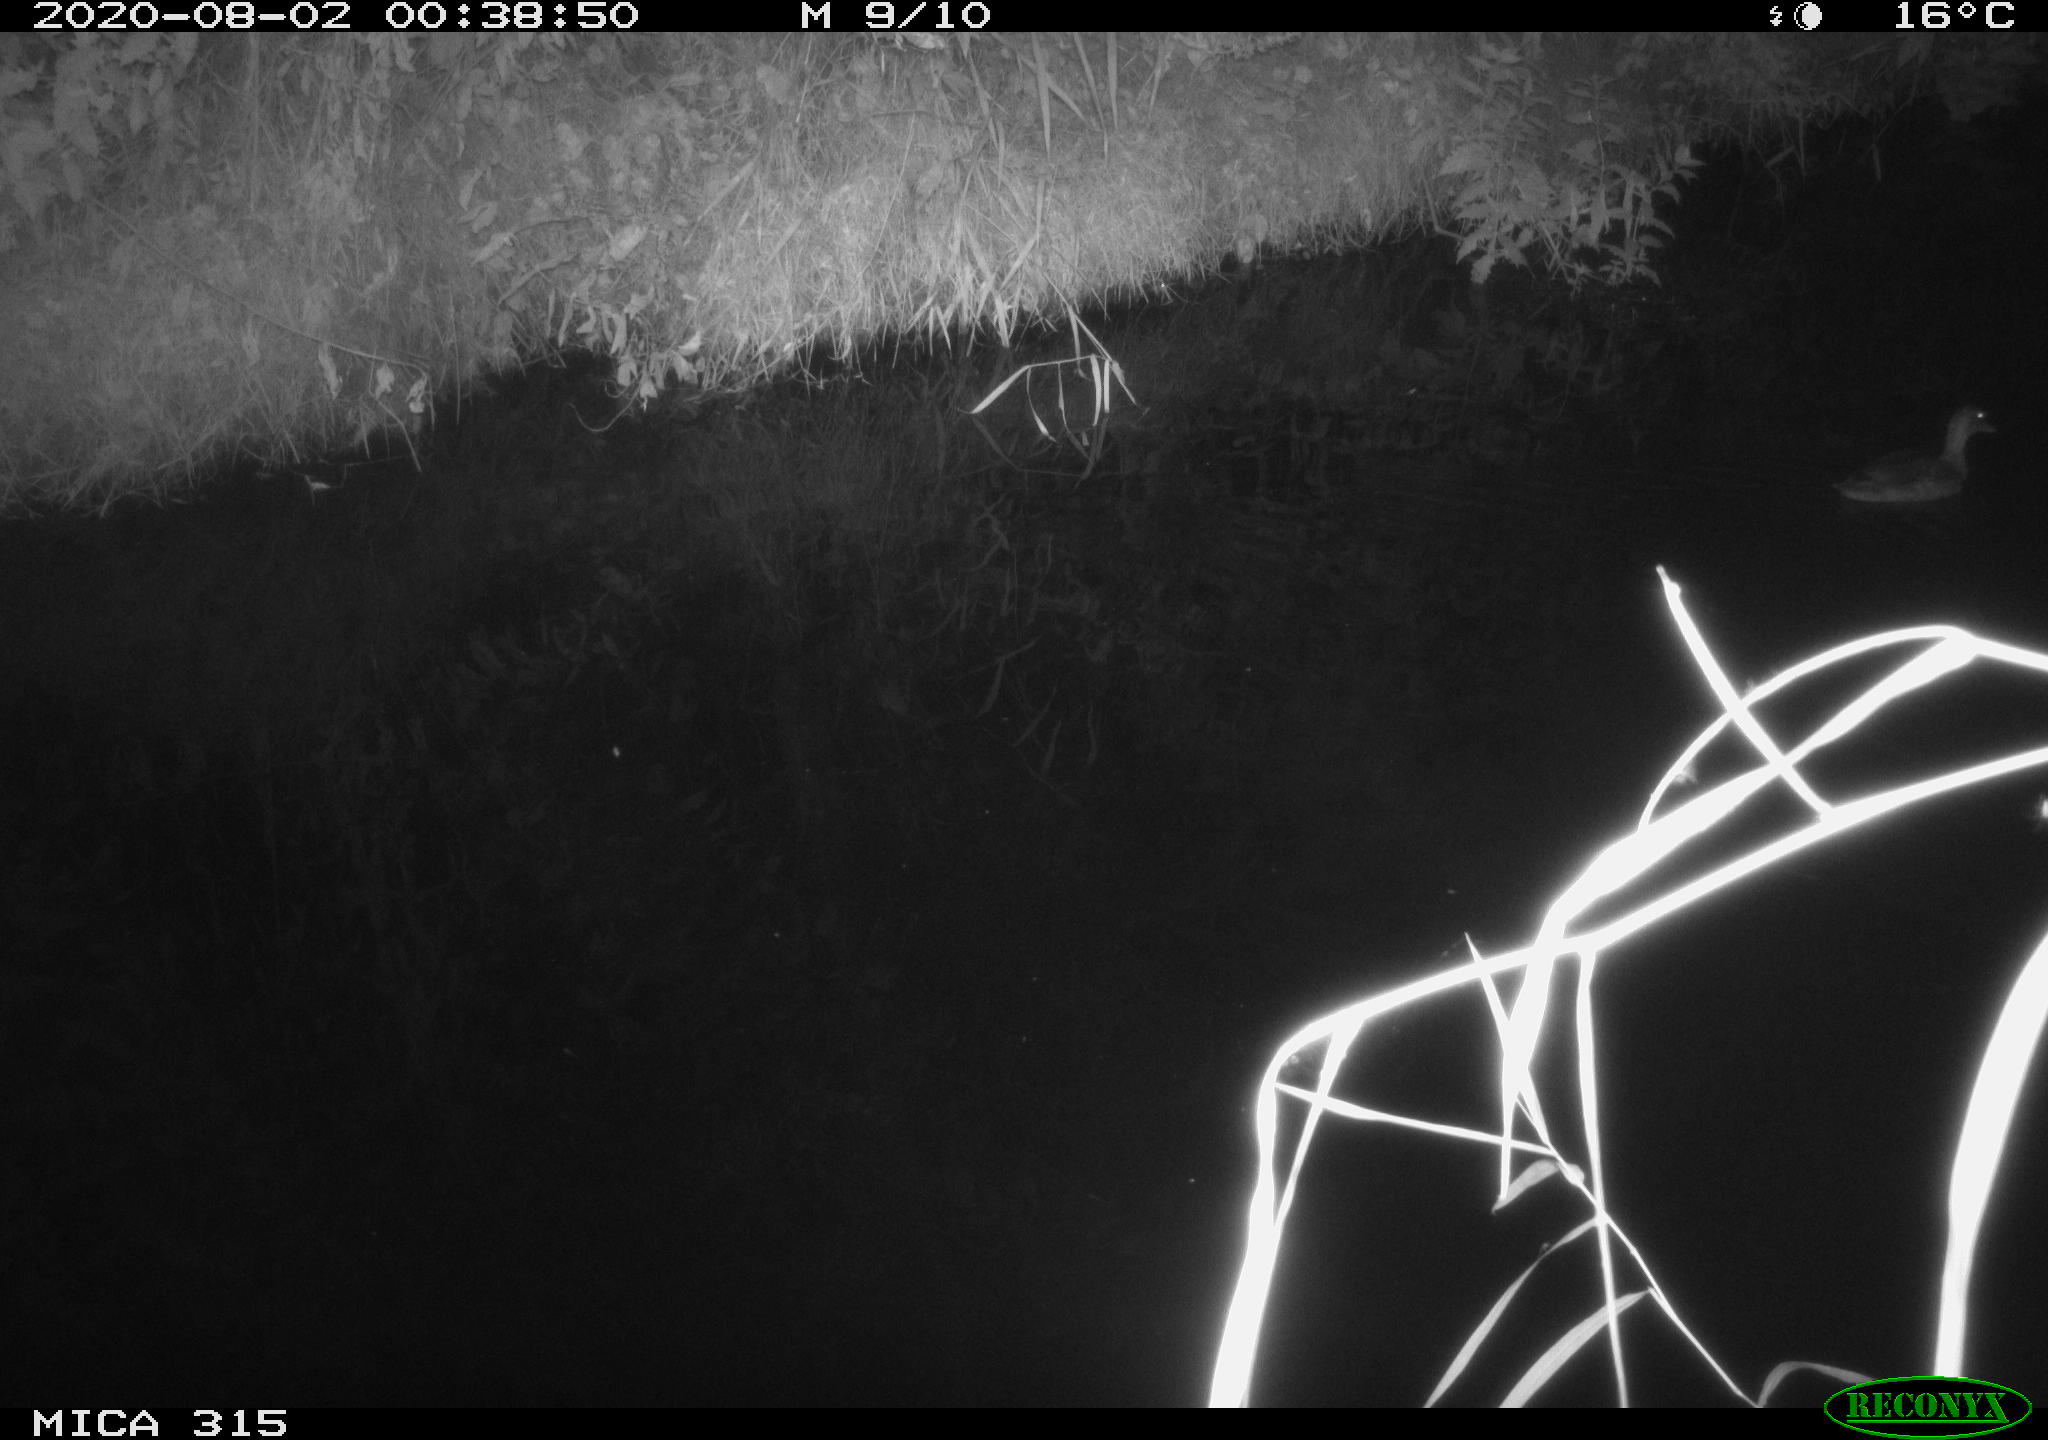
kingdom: Animalia
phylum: Chordata
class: Aves
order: Anseriformes
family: Anatidae
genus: Anas
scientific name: Anas platyrhynchos
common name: Mallard
